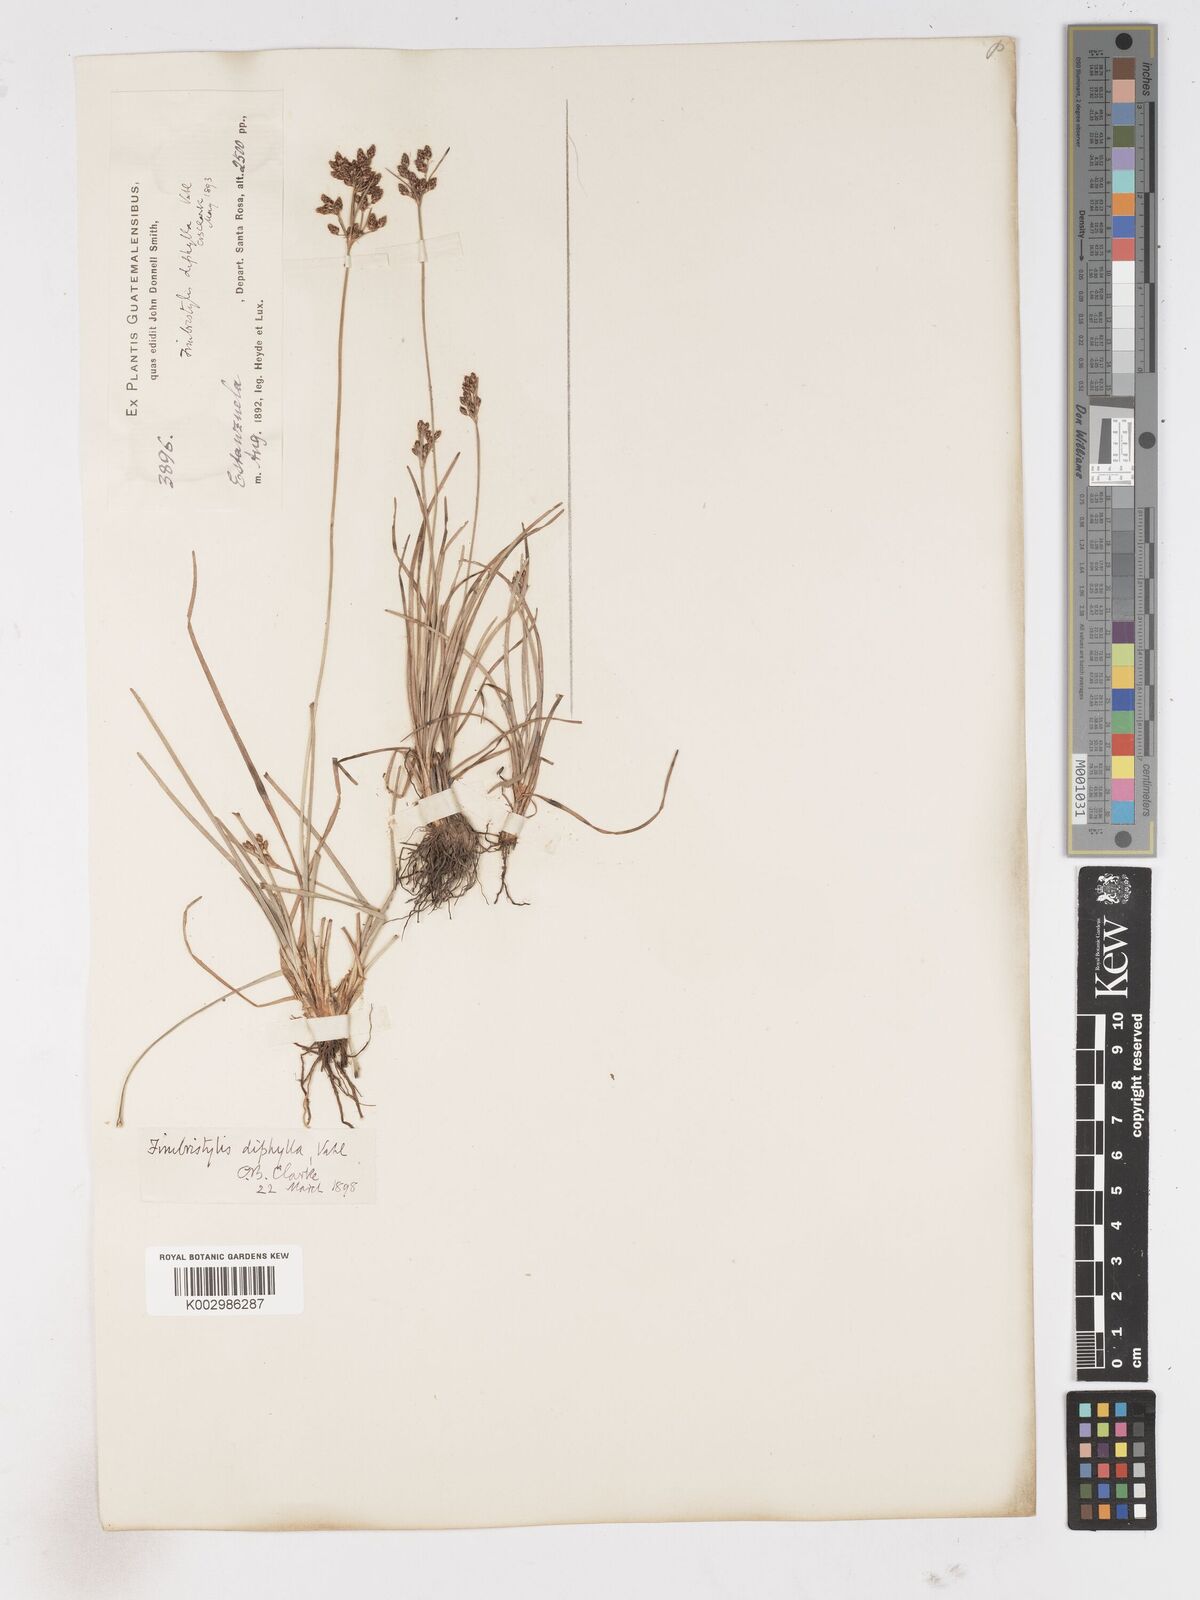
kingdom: Plantae
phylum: Tracheophyta
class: Liliopsida
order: Poales
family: Cyperaceae
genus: Fimbristylis
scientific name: Fimbristylis dichotoma
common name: Forked fimbry
